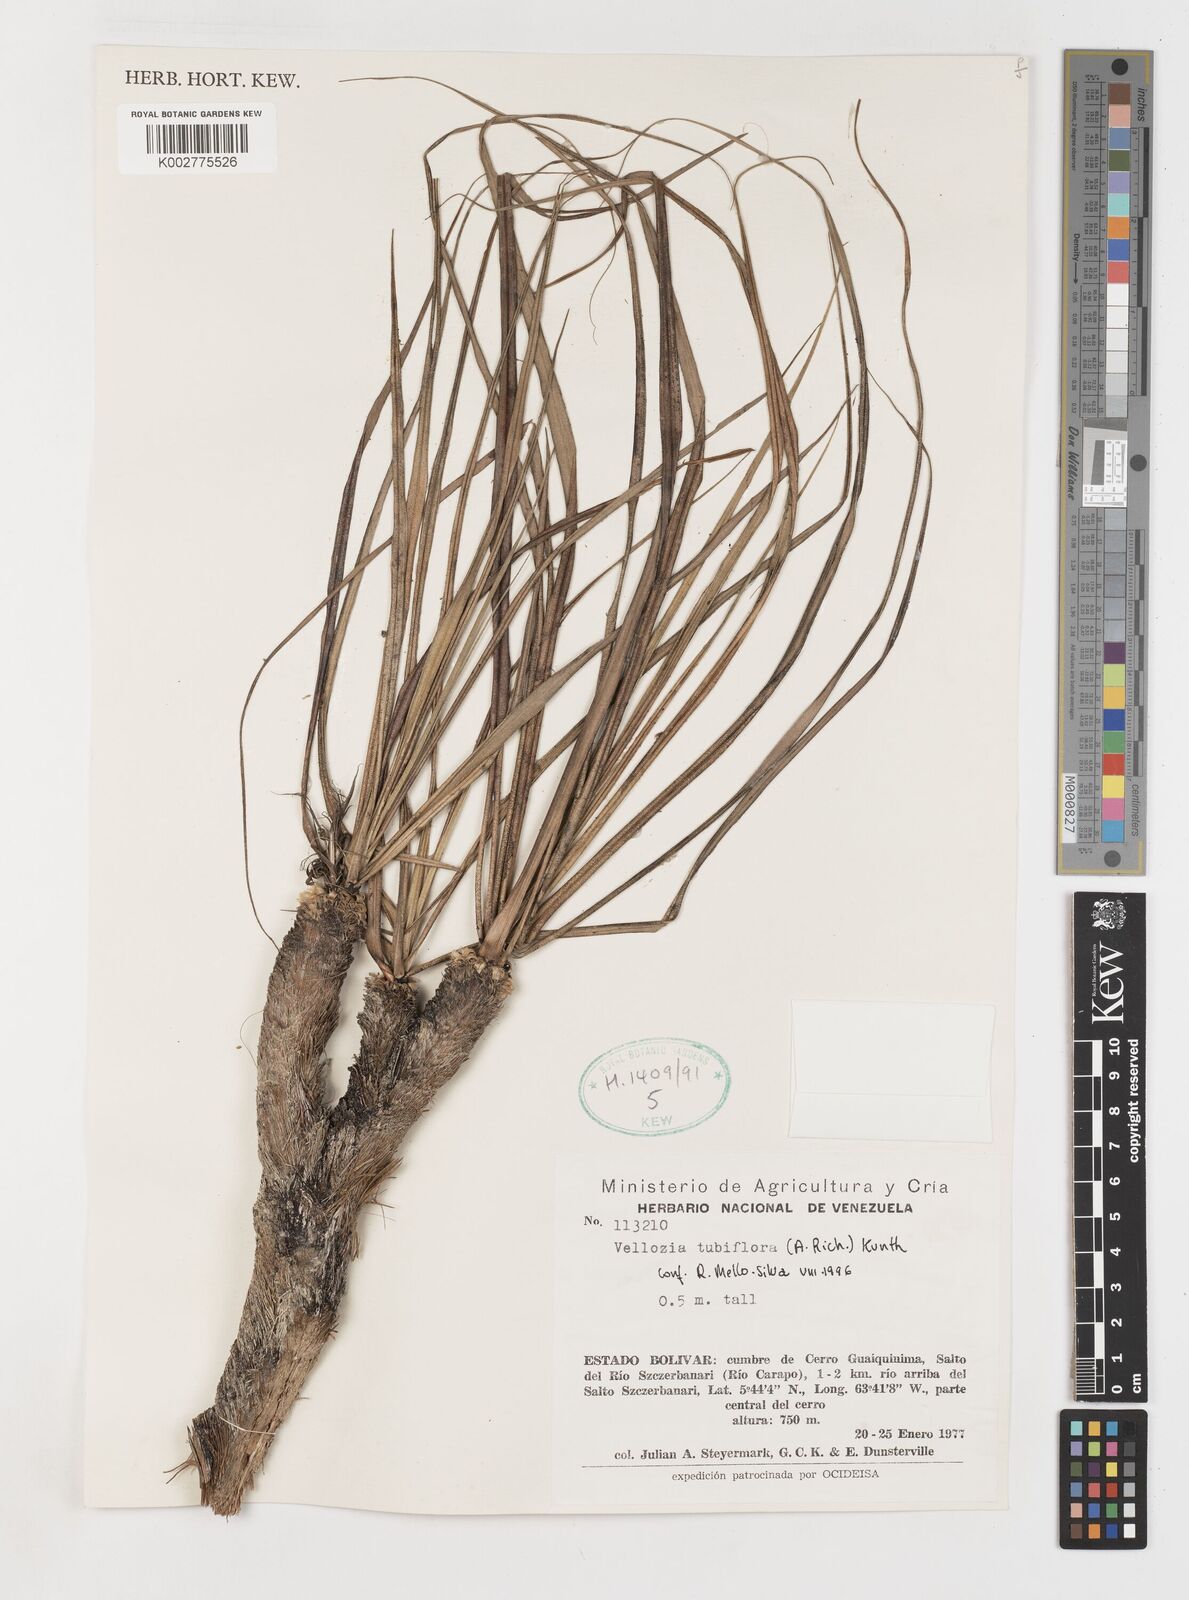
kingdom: Plantae
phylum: Tracheophyta
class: Liliopsida
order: Pandanales
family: Velloziaceae
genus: Vellozia
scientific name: Vellozia tubiflora
